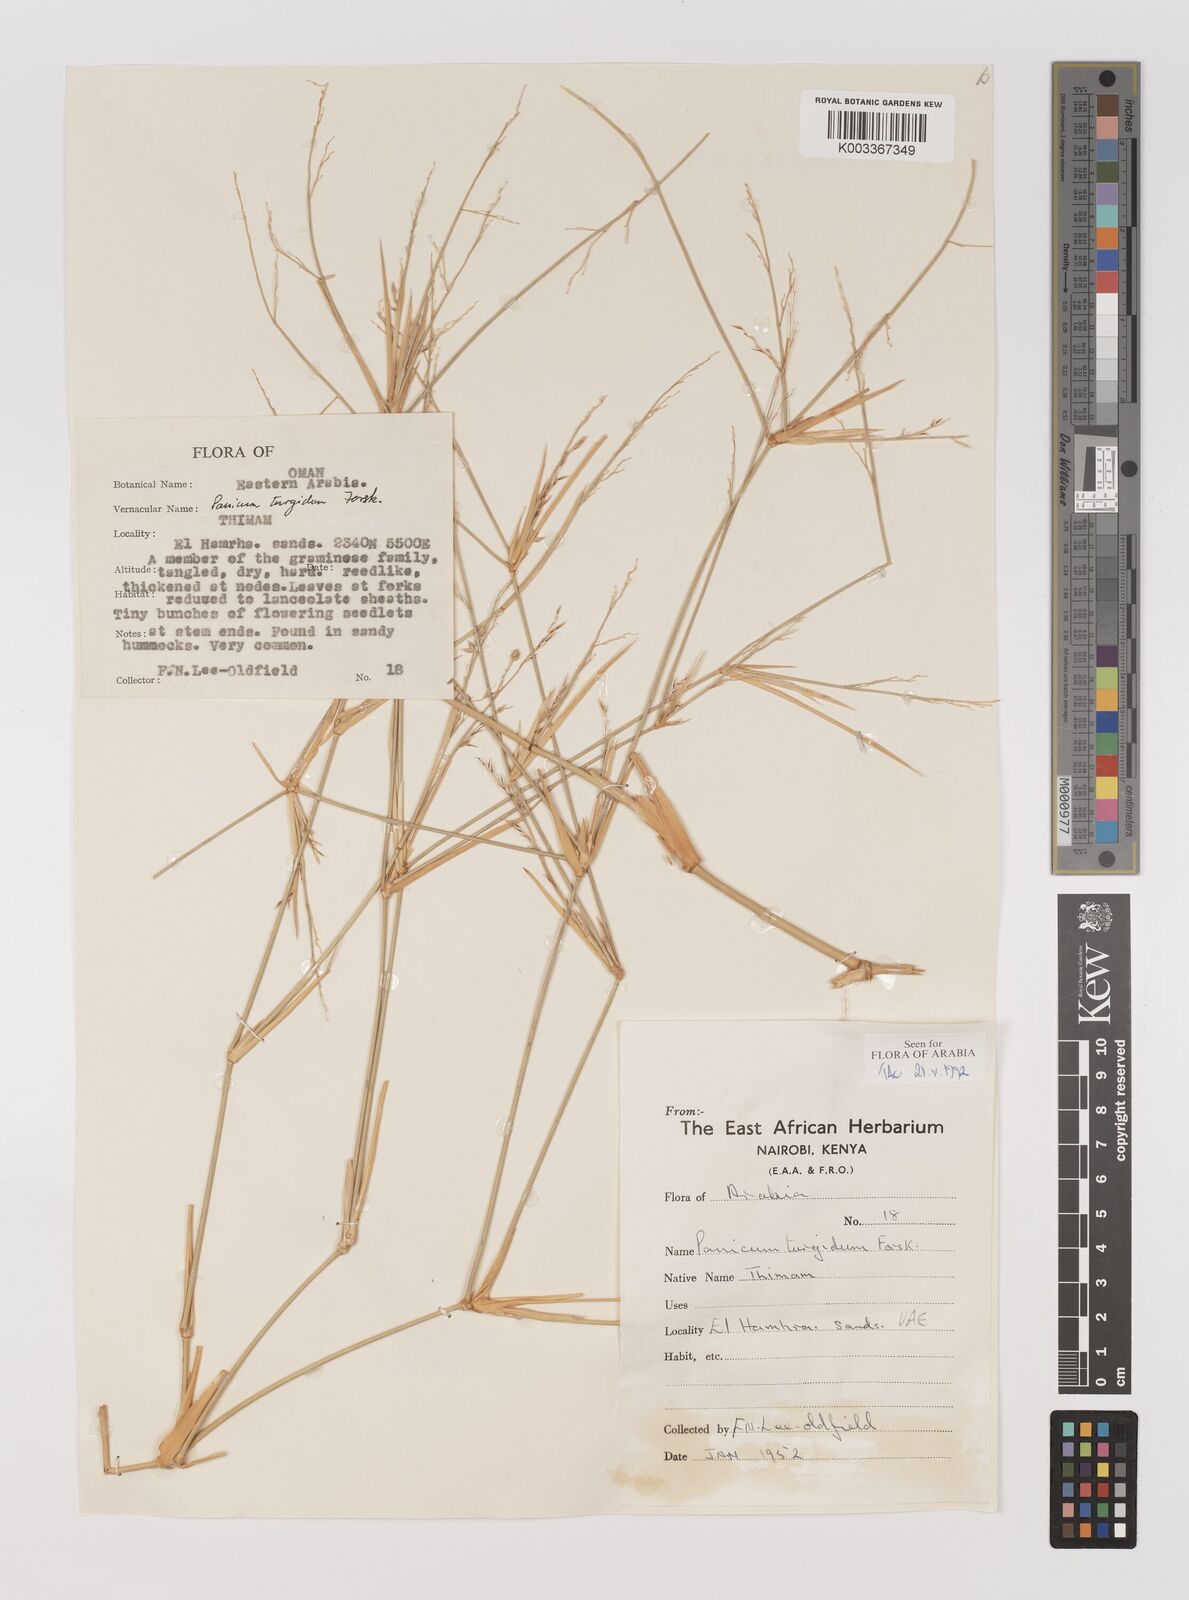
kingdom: Plantae
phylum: Tracheophyta
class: Liliopsida
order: Poales
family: Poaceae
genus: Panicum
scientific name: Panicum turgidum
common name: Desert grass
